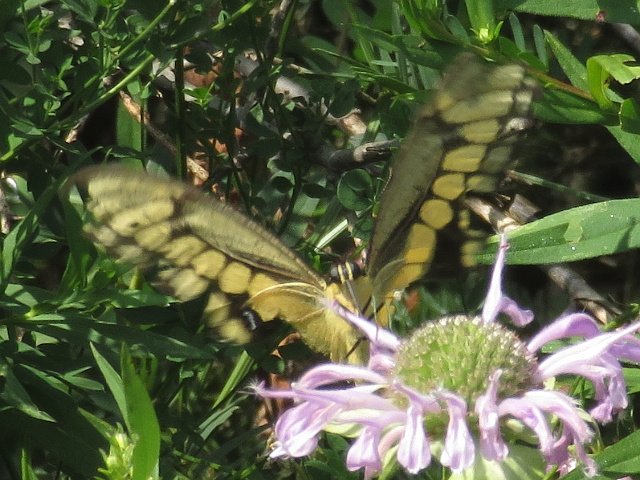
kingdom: Animalia
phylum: Arthropoda
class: Insecta
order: Lepidoptera
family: Papilionidae
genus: Papilio
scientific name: Papilio cresphontes
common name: Eastern Giant Swallowtail
